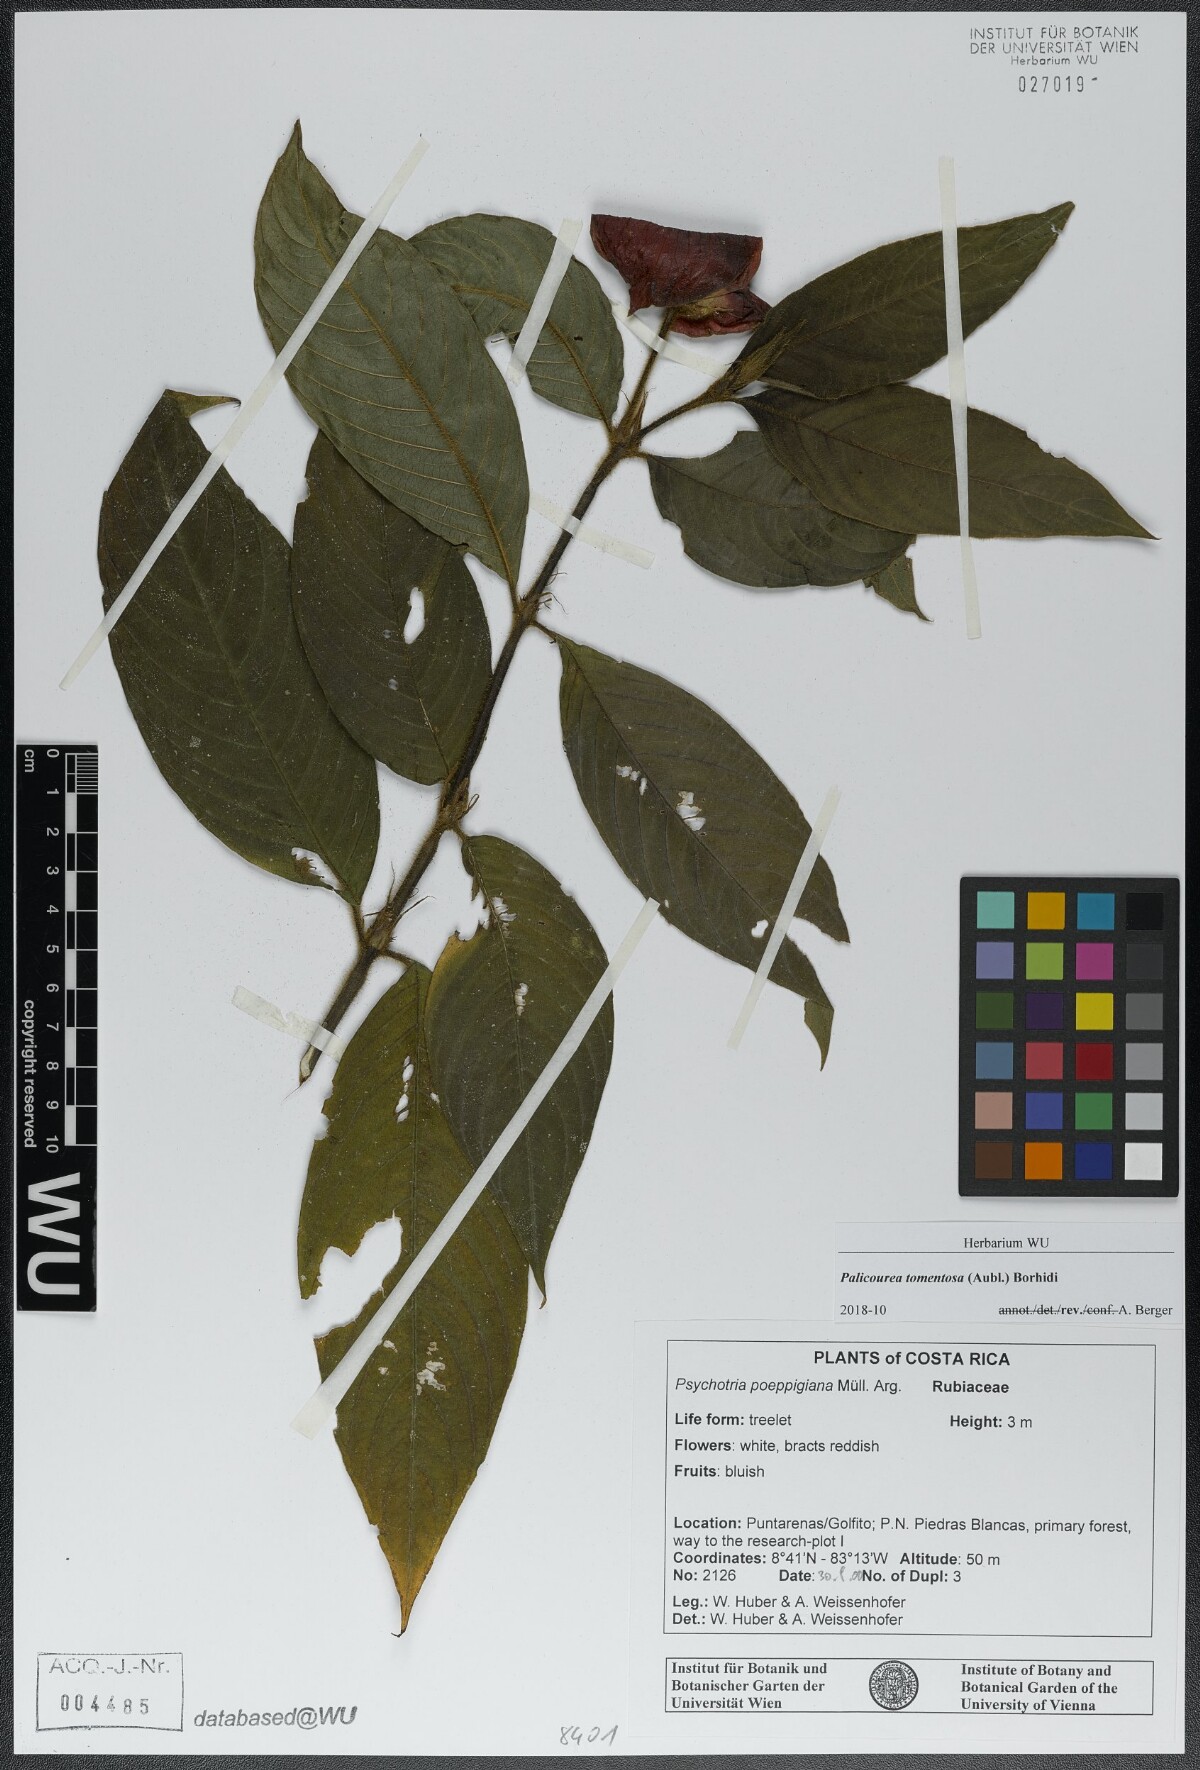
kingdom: Plantae
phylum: Tracheophyta
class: Magnoliopsida
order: Gentianales
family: Rubiaceae
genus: Palicourea
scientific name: Palicourea tomentosa
